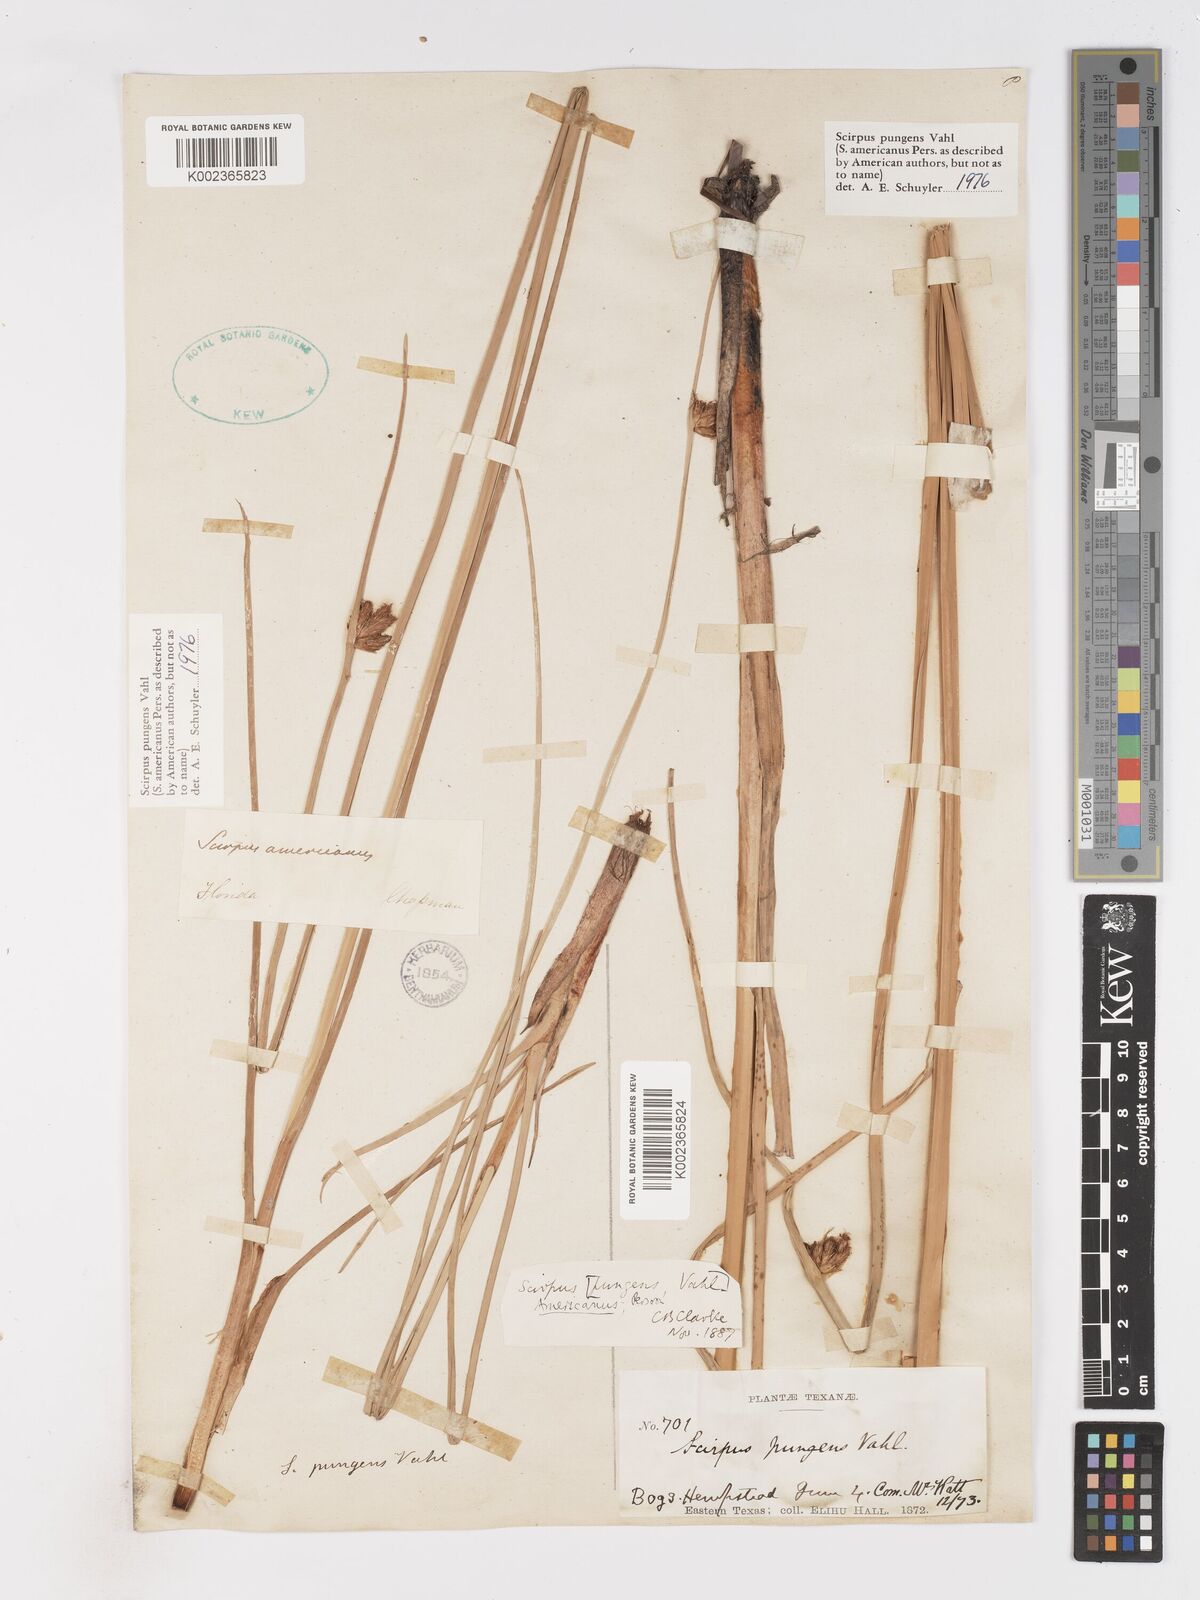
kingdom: Plantae
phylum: Tracheophyta
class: Liliopsida
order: Poales
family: Cyperaceae
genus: Schoenoplectus
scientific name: Schoenoplectus pungens
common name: Sharp club-rush
